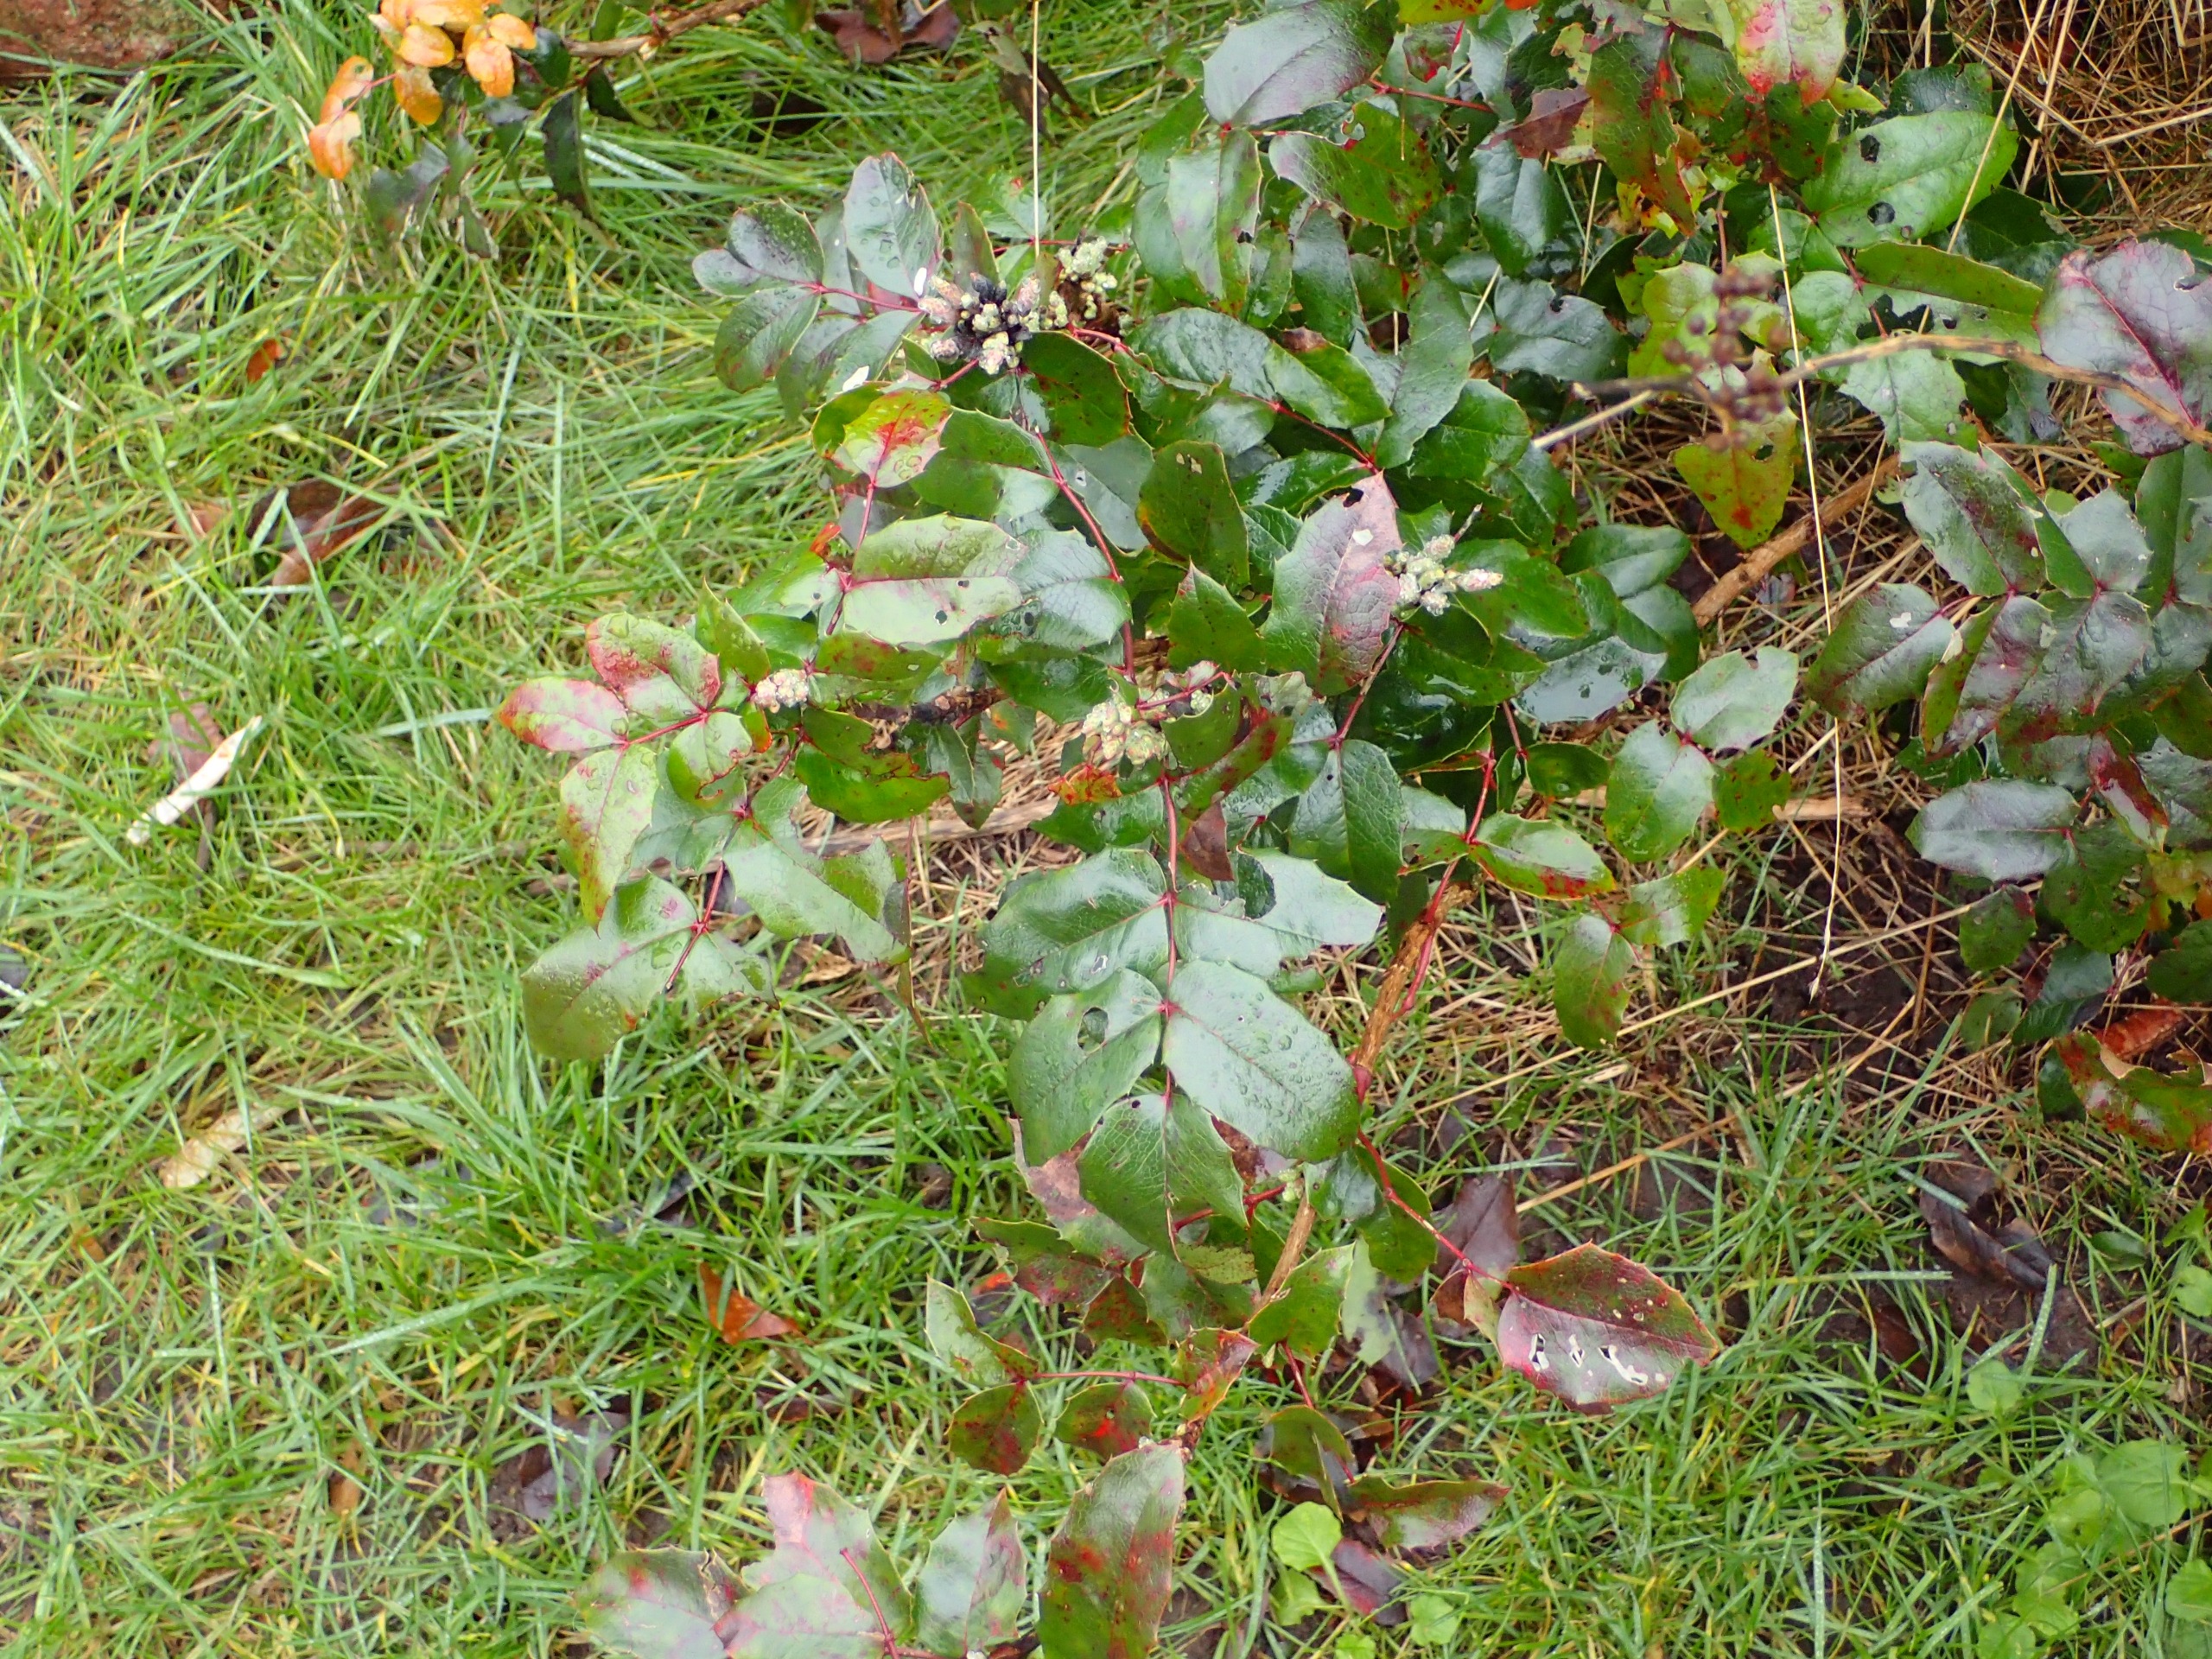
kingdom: Plantae
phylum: Tracheophyta
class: Magnoliopsida
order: Ranunculales
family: Berberidaceae
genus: Mahonia
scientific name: Mahonia aquifolium
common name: Almindelig mahonie
